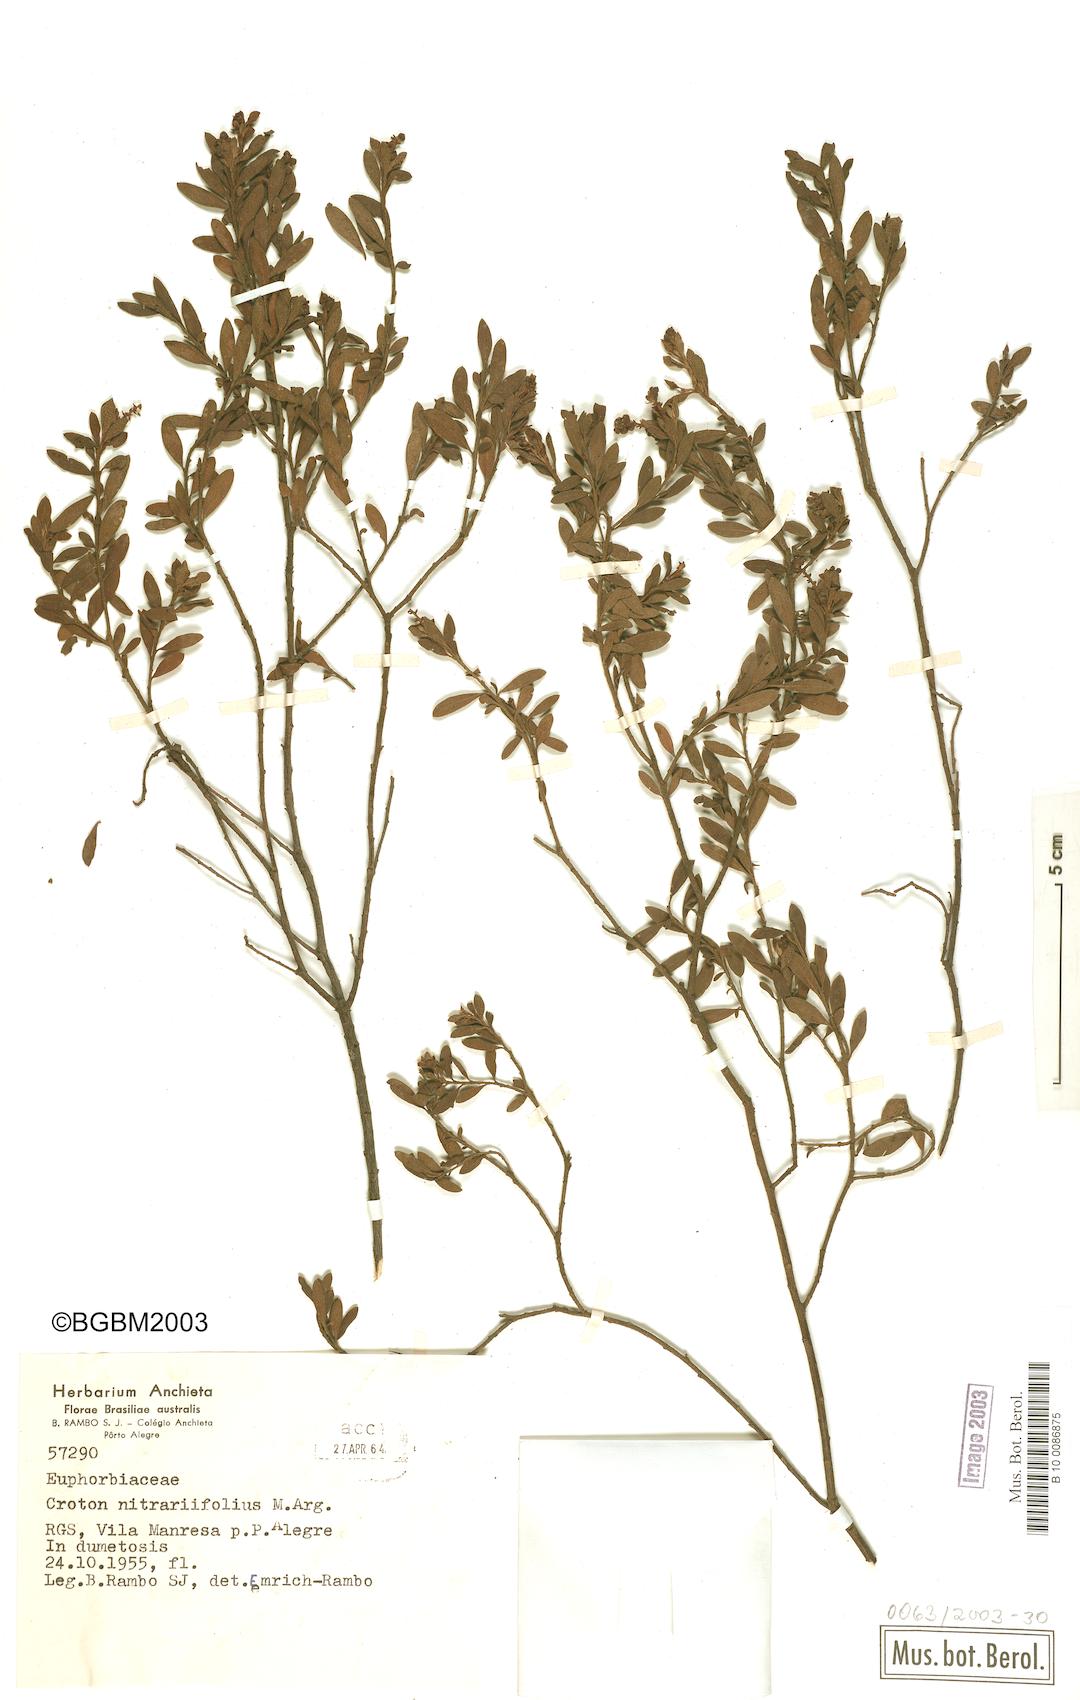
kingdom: Plantae
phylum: Tracheophyta
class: Magnoliopsida
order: Malpighiales
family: Euphorbiaceae
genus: Croton
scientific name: Croton nitrariifolius
